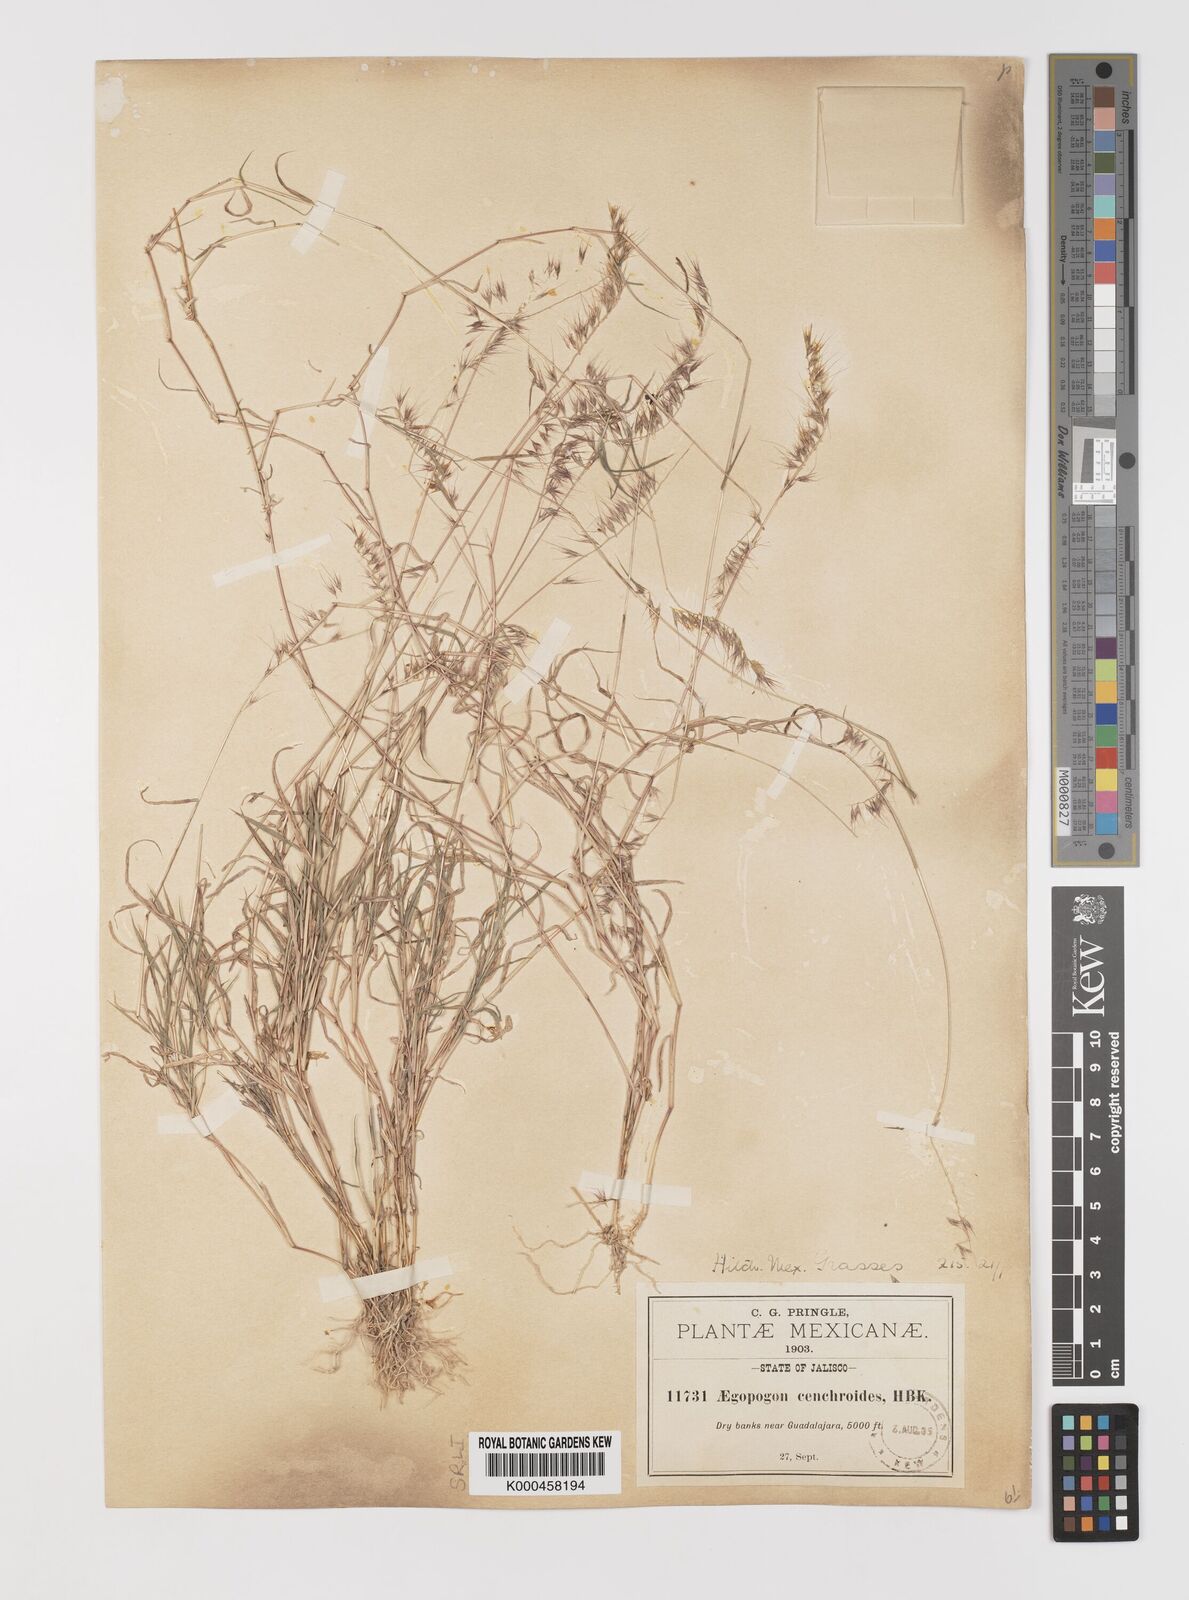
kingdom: Plantae
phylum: Tracheophyta
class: Liliopsida
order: Poales
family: Poaceae
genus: Muhlenbergia
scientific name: Muhlenbergia
